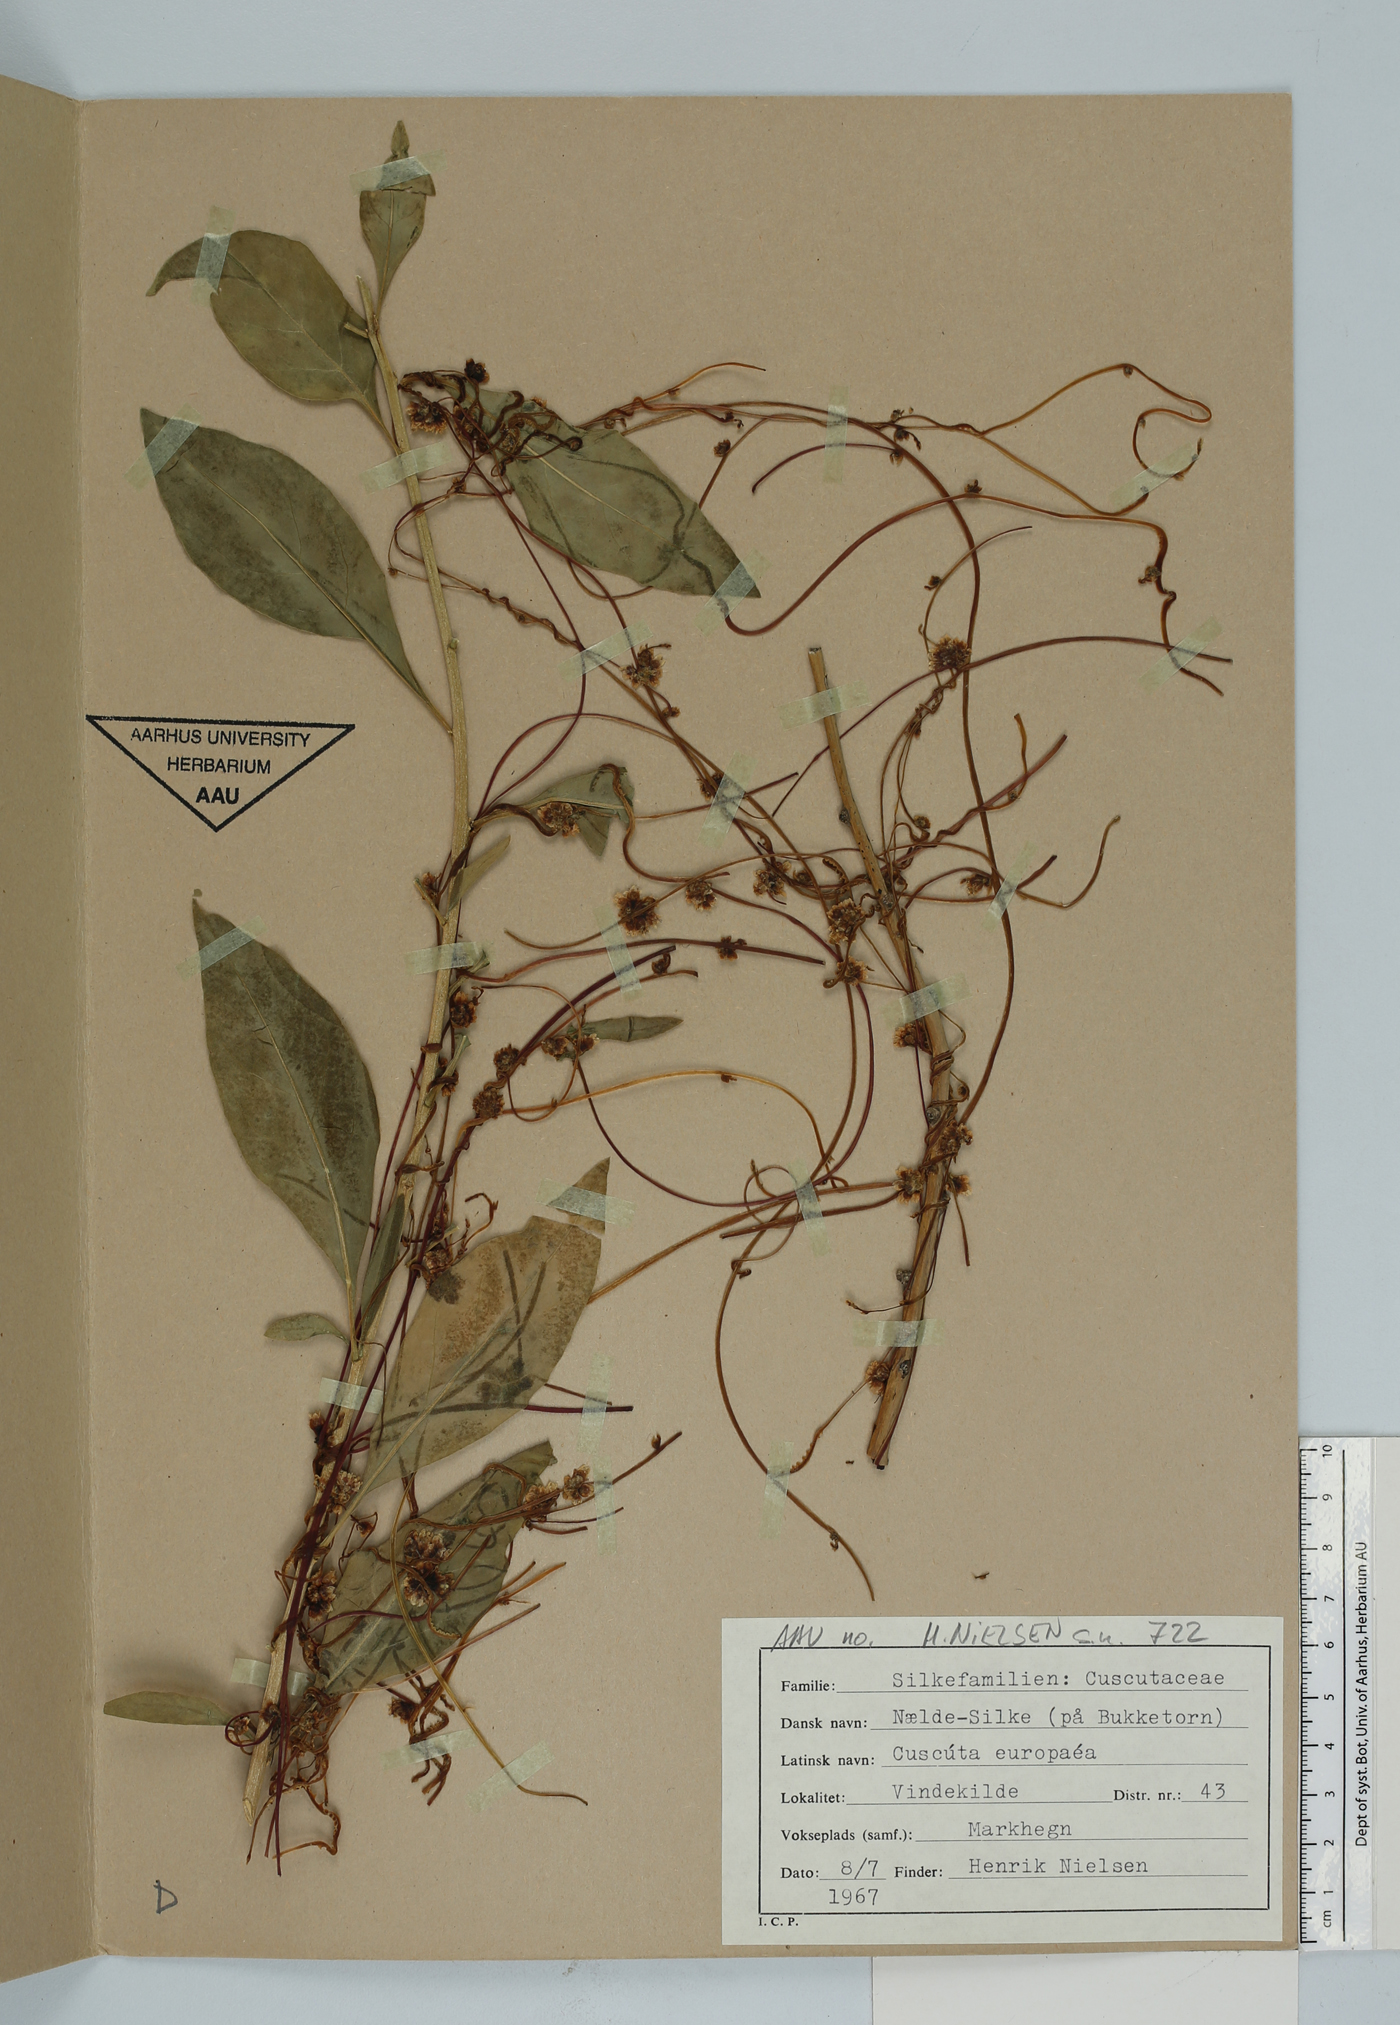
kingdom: Plantae
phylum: Tracheophyta
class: Magnoliopsida
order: Solanales
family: Convolvulaceae
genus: Cuscuta
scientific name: Cuscuta europaea
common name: Greater dodder
